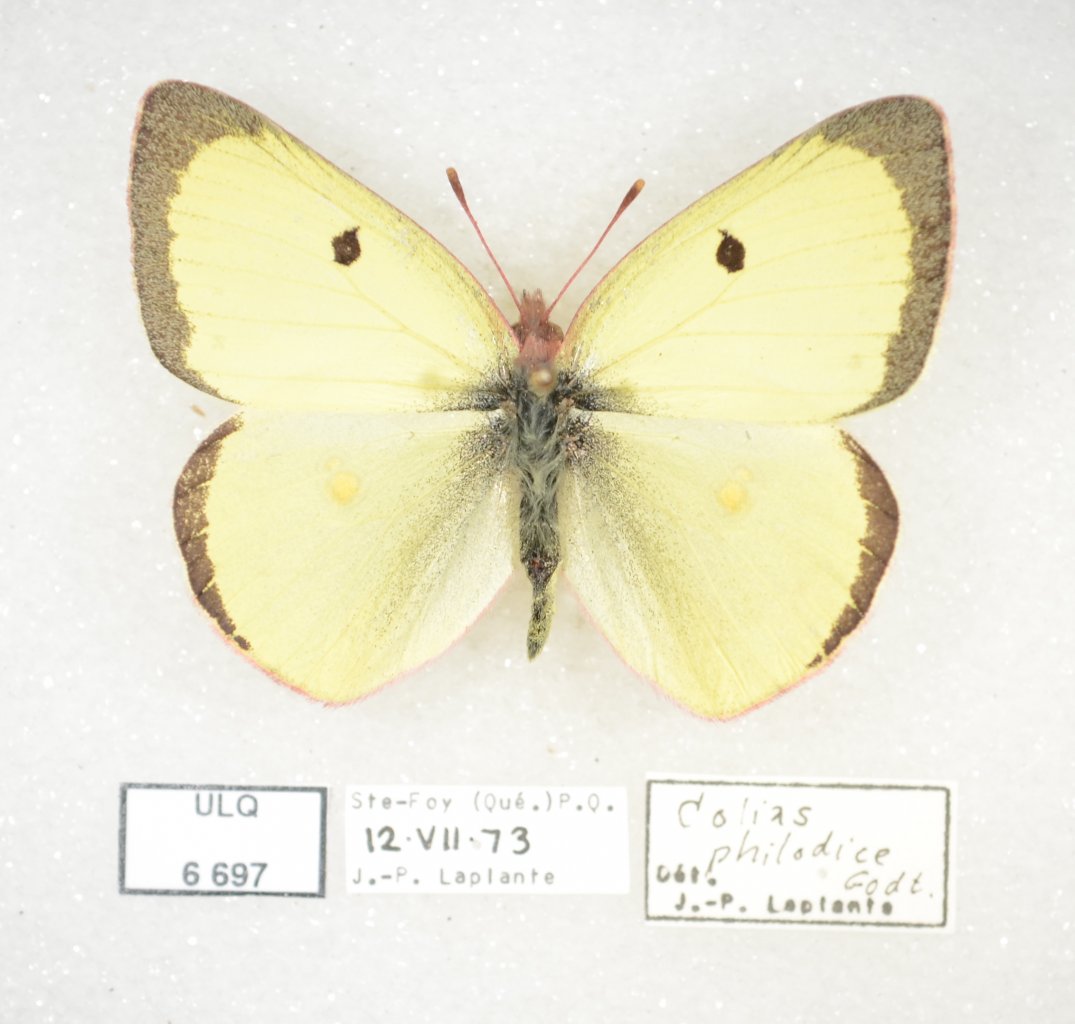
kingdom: Animalia
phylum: Arthropoda
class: Insecta
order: Lepidoptera
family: Pieridae
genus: Colias
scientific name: Colias philodice
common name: Clouded Sulphur
